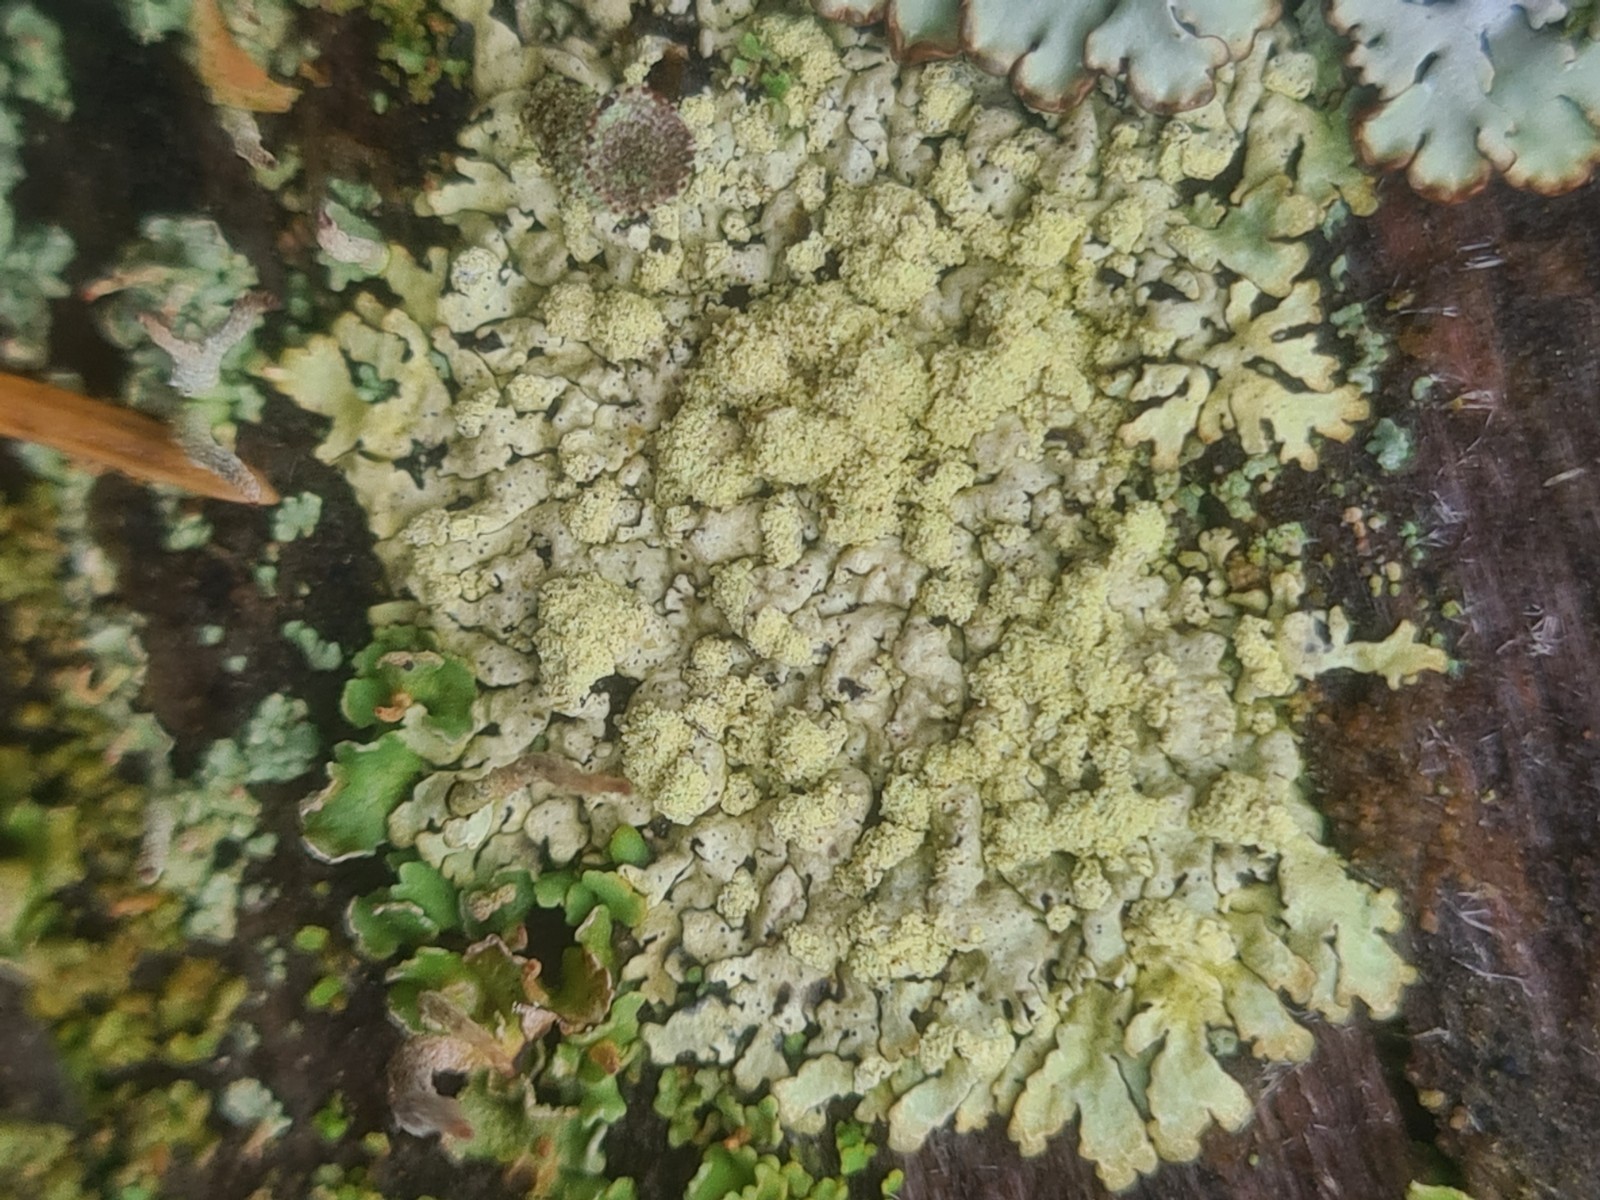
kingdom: Fungi
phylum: Ascomycota
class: Lecanoromycetes
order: Lecanorales
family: Parmeliaceae
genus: Parmeliopsis
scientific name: Parmeliopsis ambigua
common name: gul stolpelav
